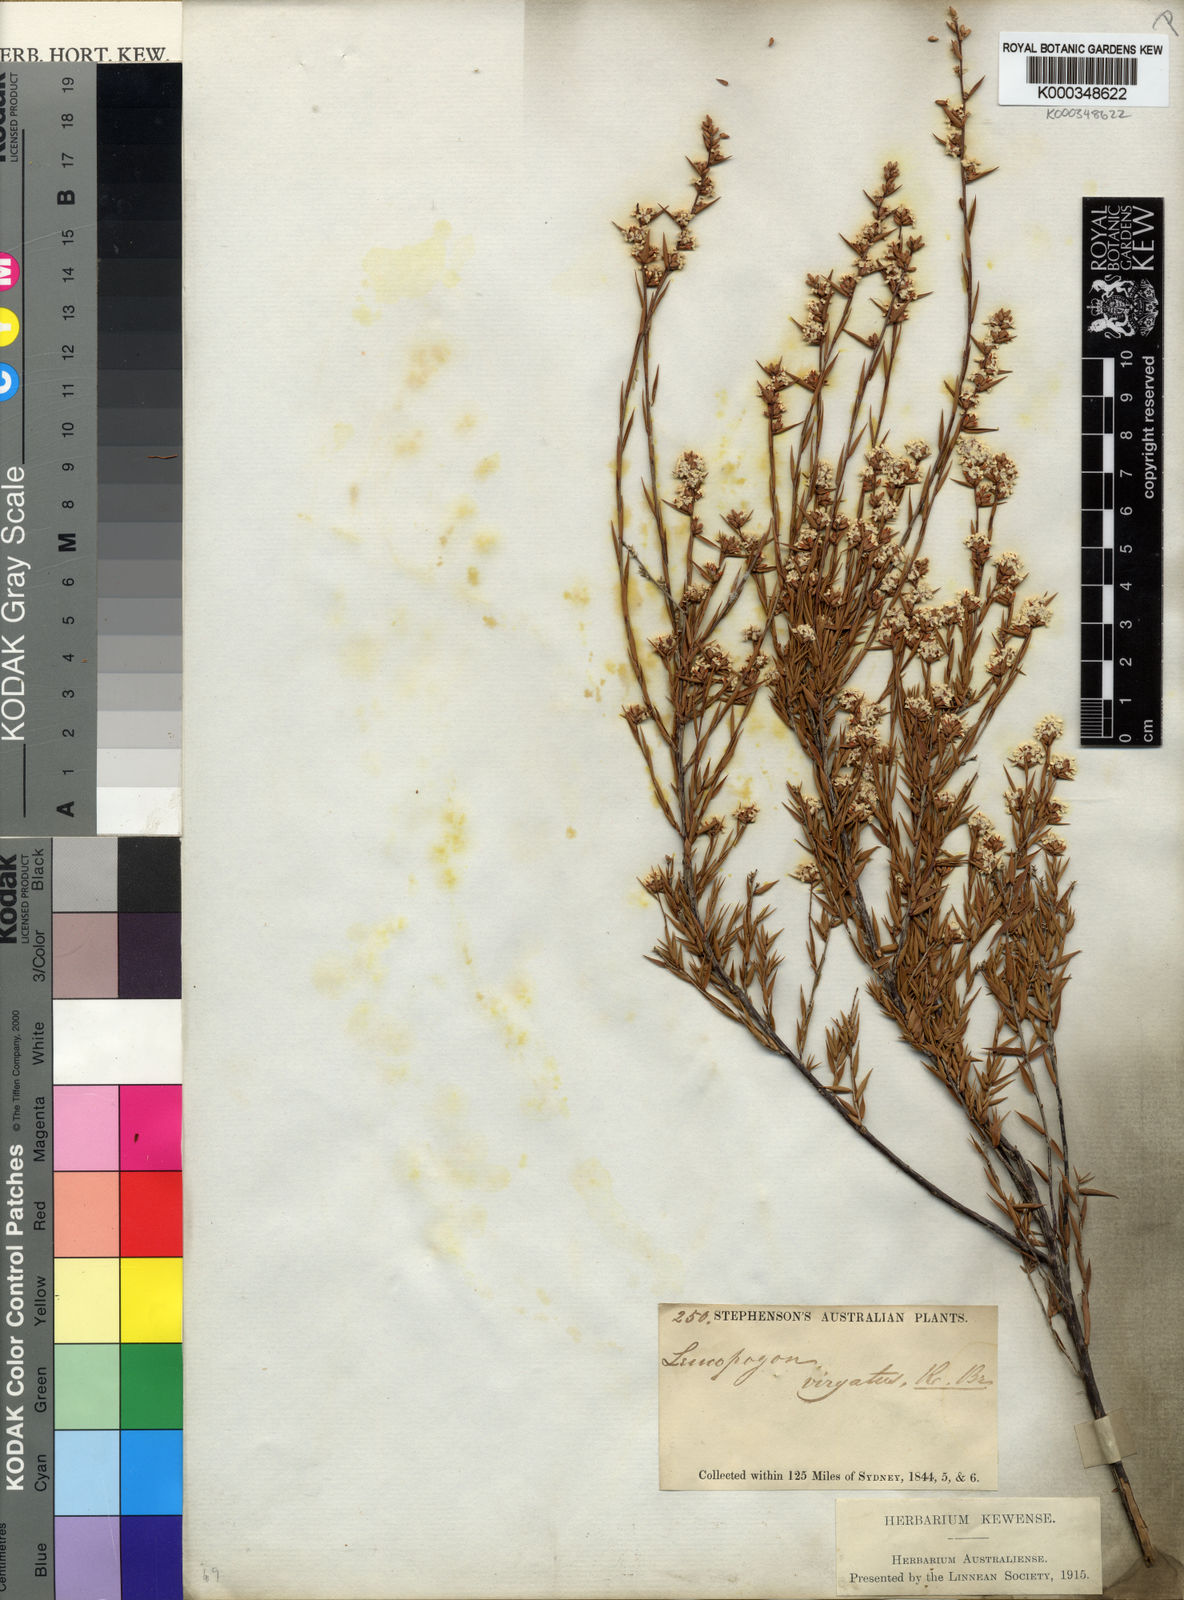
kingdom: Plantae
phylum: Tracheophyta
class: Magnoliopsida
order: Ericales
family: Ericaceae
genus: Leucopogon
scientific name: Leucopogon virgatus
